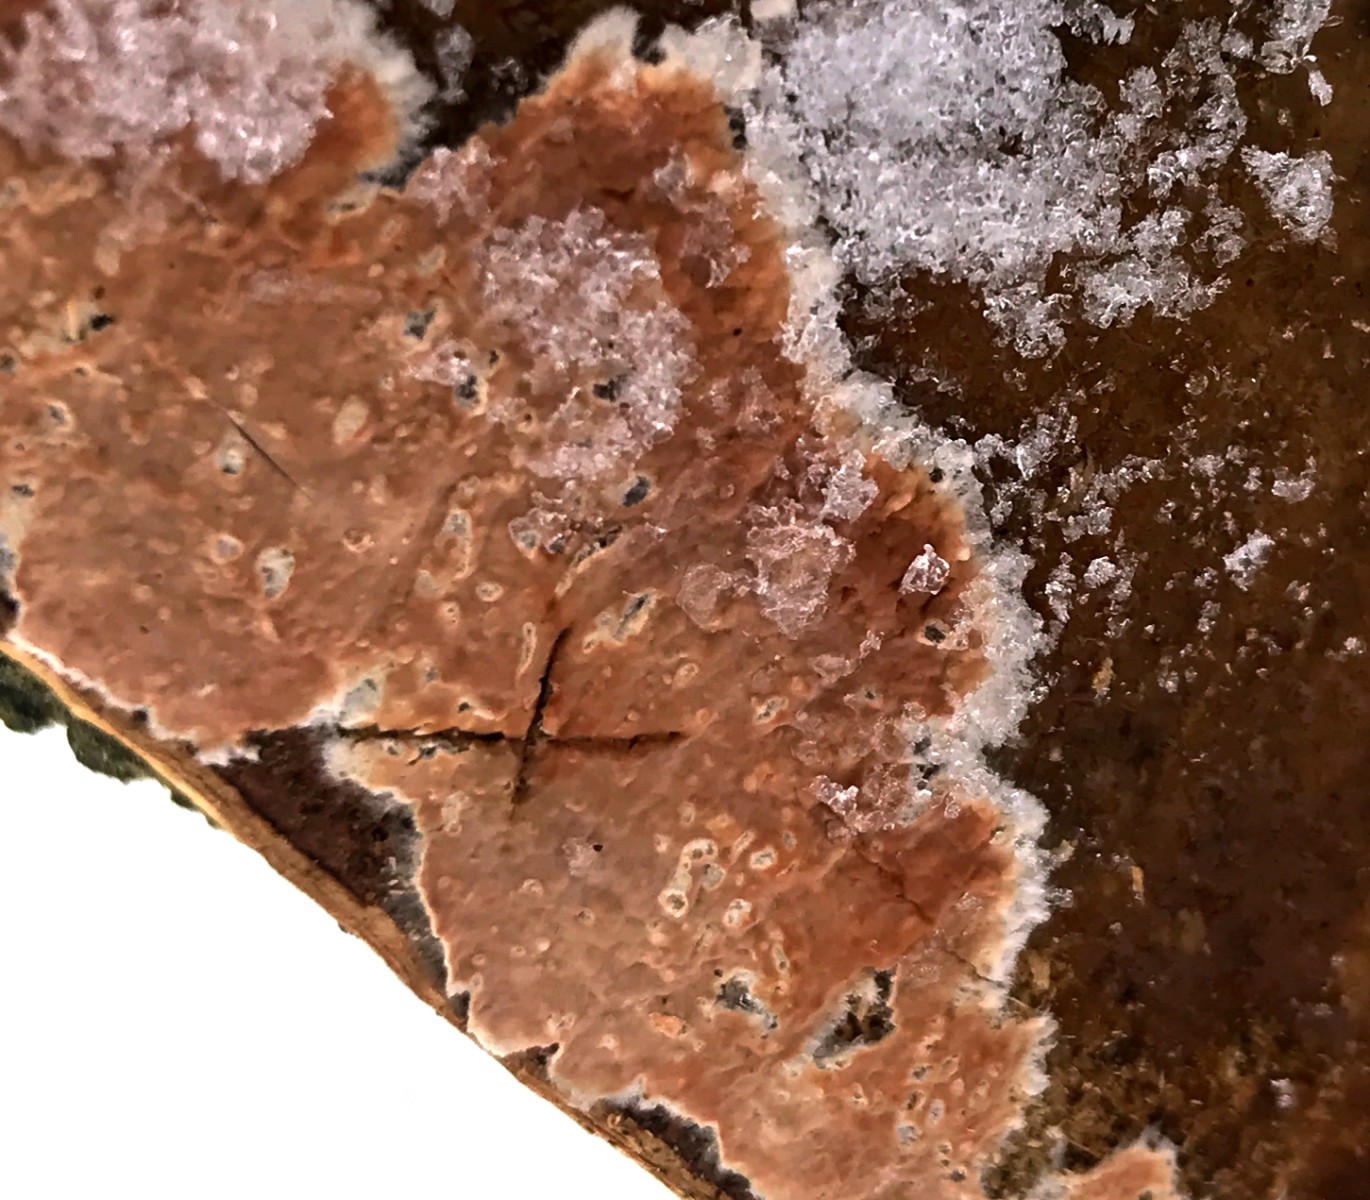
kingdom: Fungi
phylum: Basidiomycota
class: Agaricomycetes
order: Russulales
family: Stereaceae
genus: Stereum
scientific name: Stereum rugosum
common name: rynket lædersvamp
